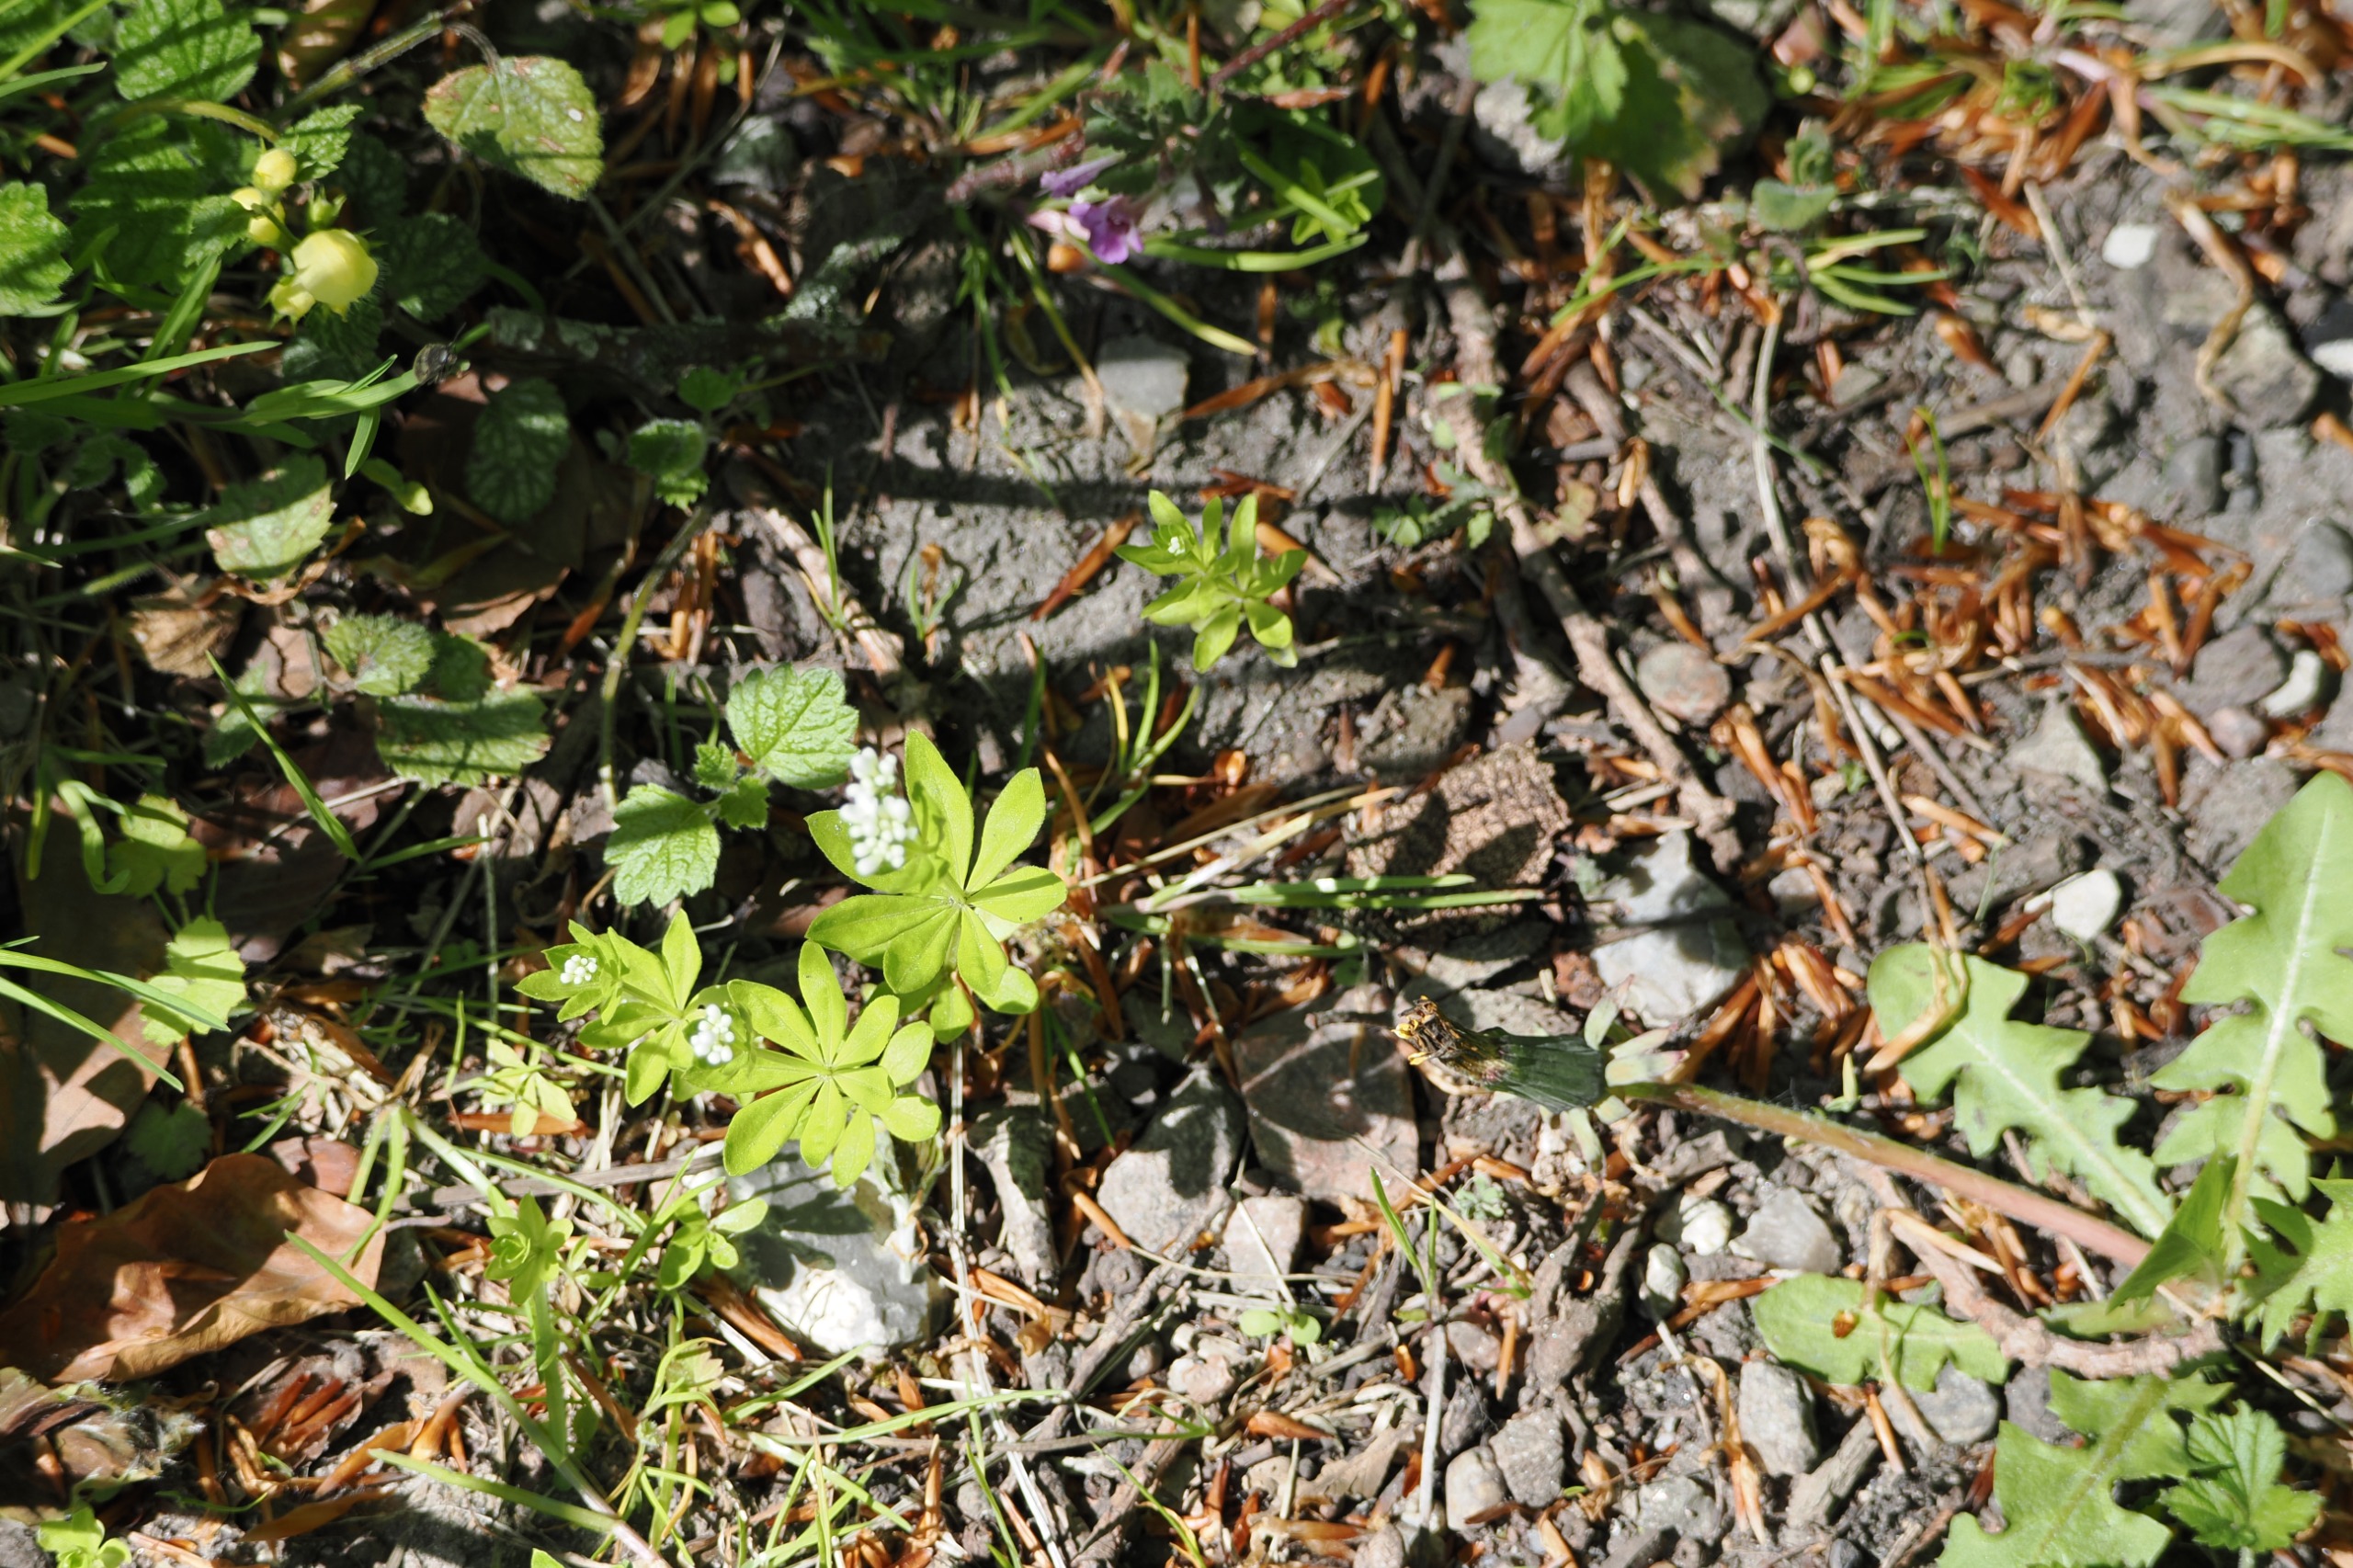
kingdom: Plantae
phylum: Tracheophyta
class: Magnoliopsida
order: Gentianales
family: Rubiaceae
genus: Galium
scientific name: Galium odoratum
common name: Skovmærke
